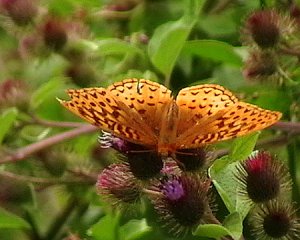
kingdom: Animalia
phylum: Arthropoda
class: Insecta
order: Lepidoptera
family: Nymphalidae
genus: Speyeria
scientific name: Speyeria cybele
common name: Great Spangled Fritillary
